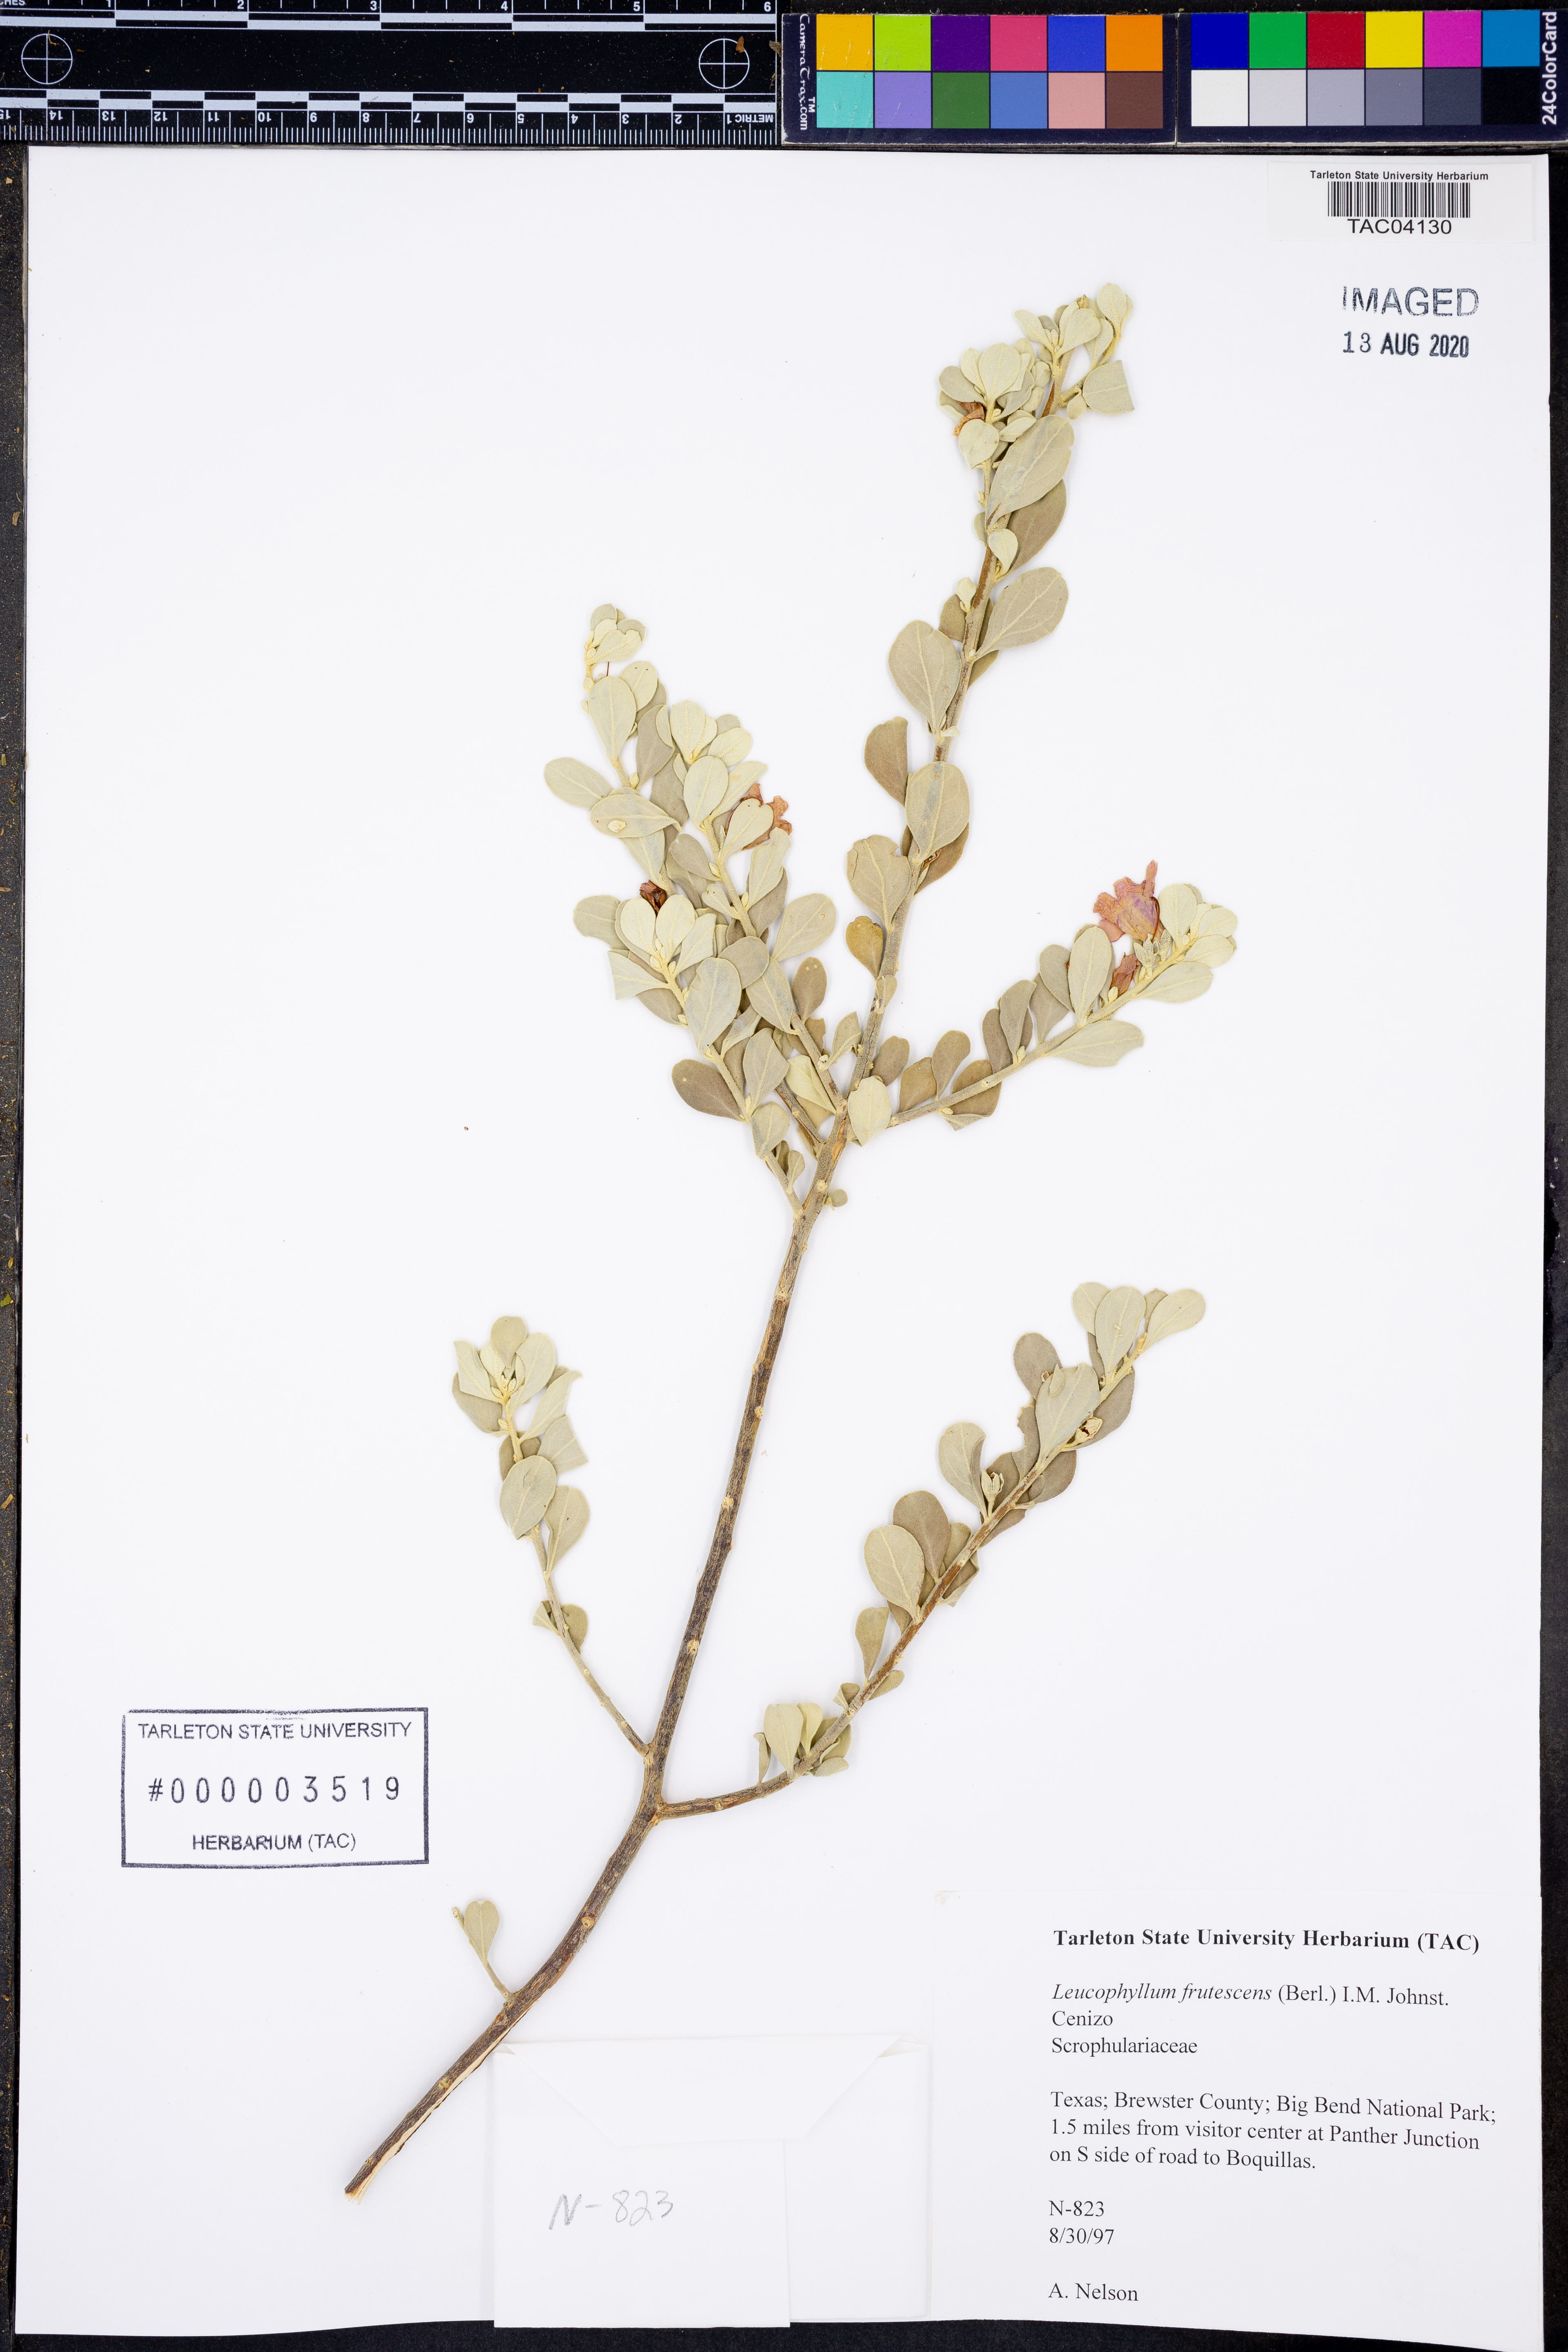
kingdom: Plantae
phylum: Tracheophyta
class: Magnoliopsida
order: Lamiales
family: Scrophulariaceae
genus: Leucophyllum
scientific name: Leucophyllum frutescens
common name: Texas silverleaf
